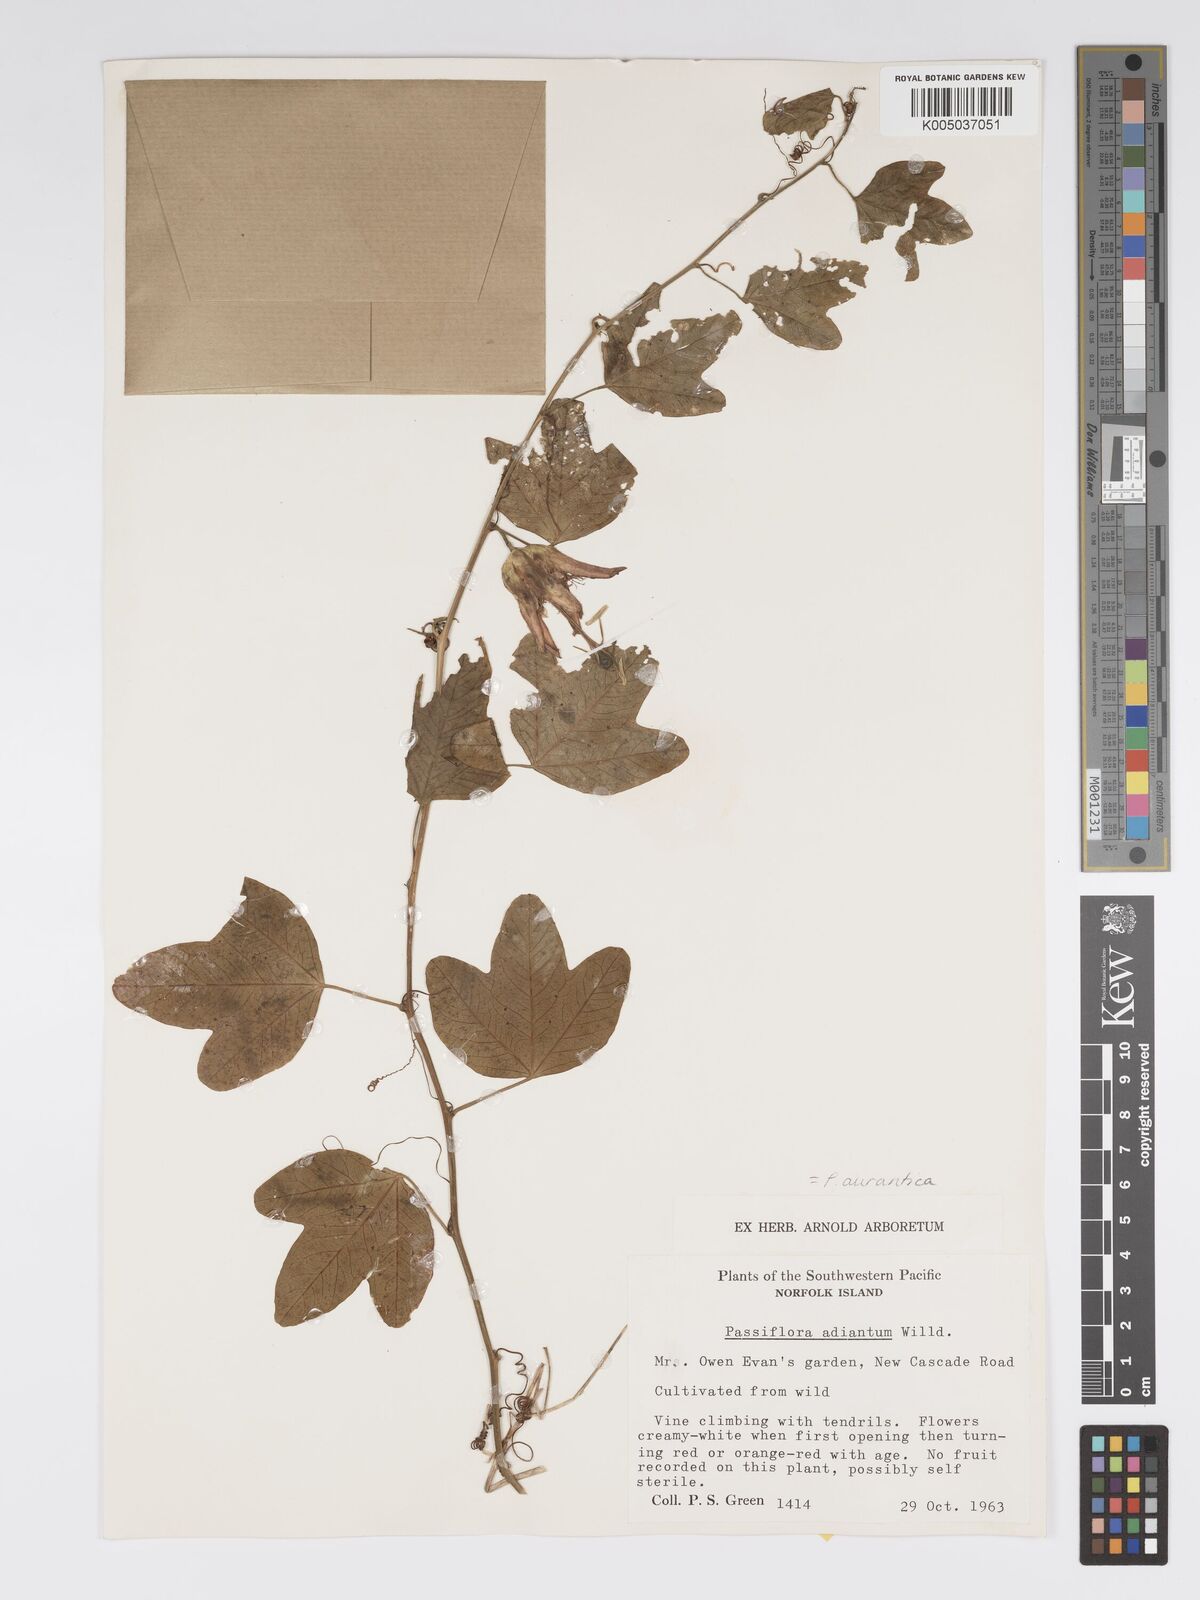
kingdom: Plantae
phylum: Tracheophyta
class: Magnoliopsida
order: Malpighiales
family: Passifloraceae
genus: Passiflora
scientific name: Passiflora aurantia
